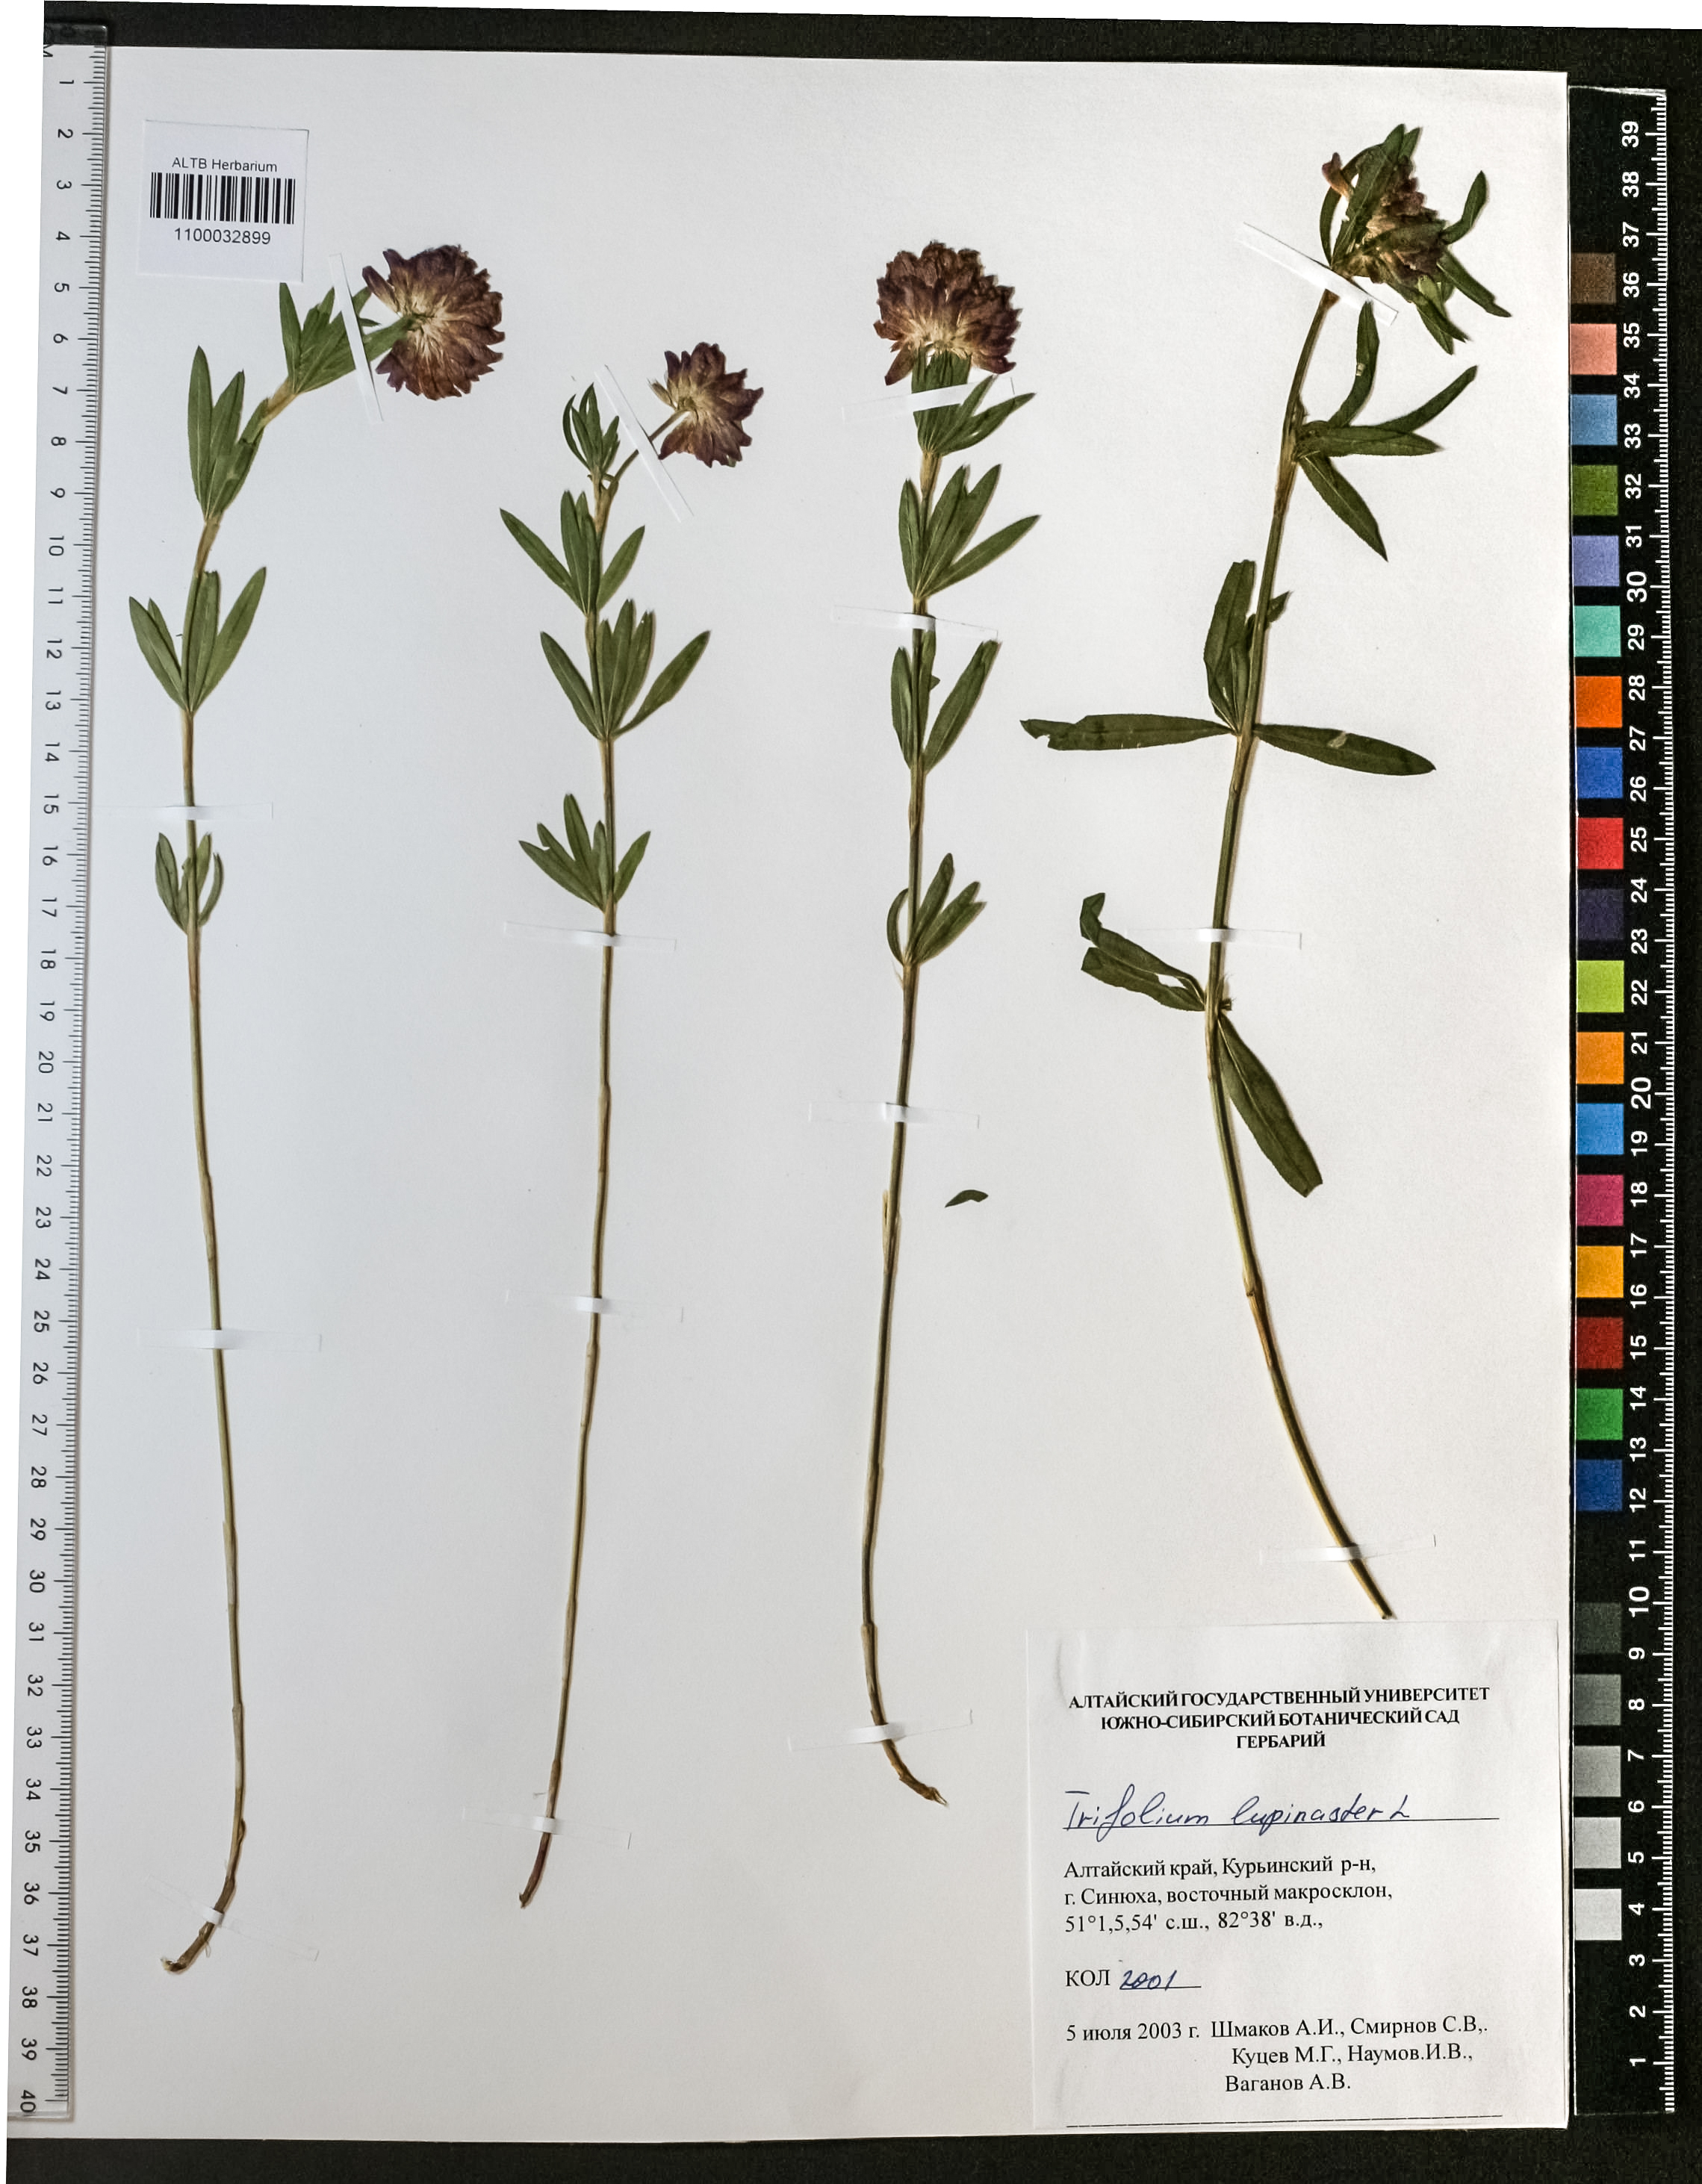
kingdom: Plantae
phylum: Tracheophyta
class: Magnoliopsida
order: Fabales
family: Fabaceae
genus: Trifolium
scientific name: Trifolium lupinaster
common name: Lupine clover
